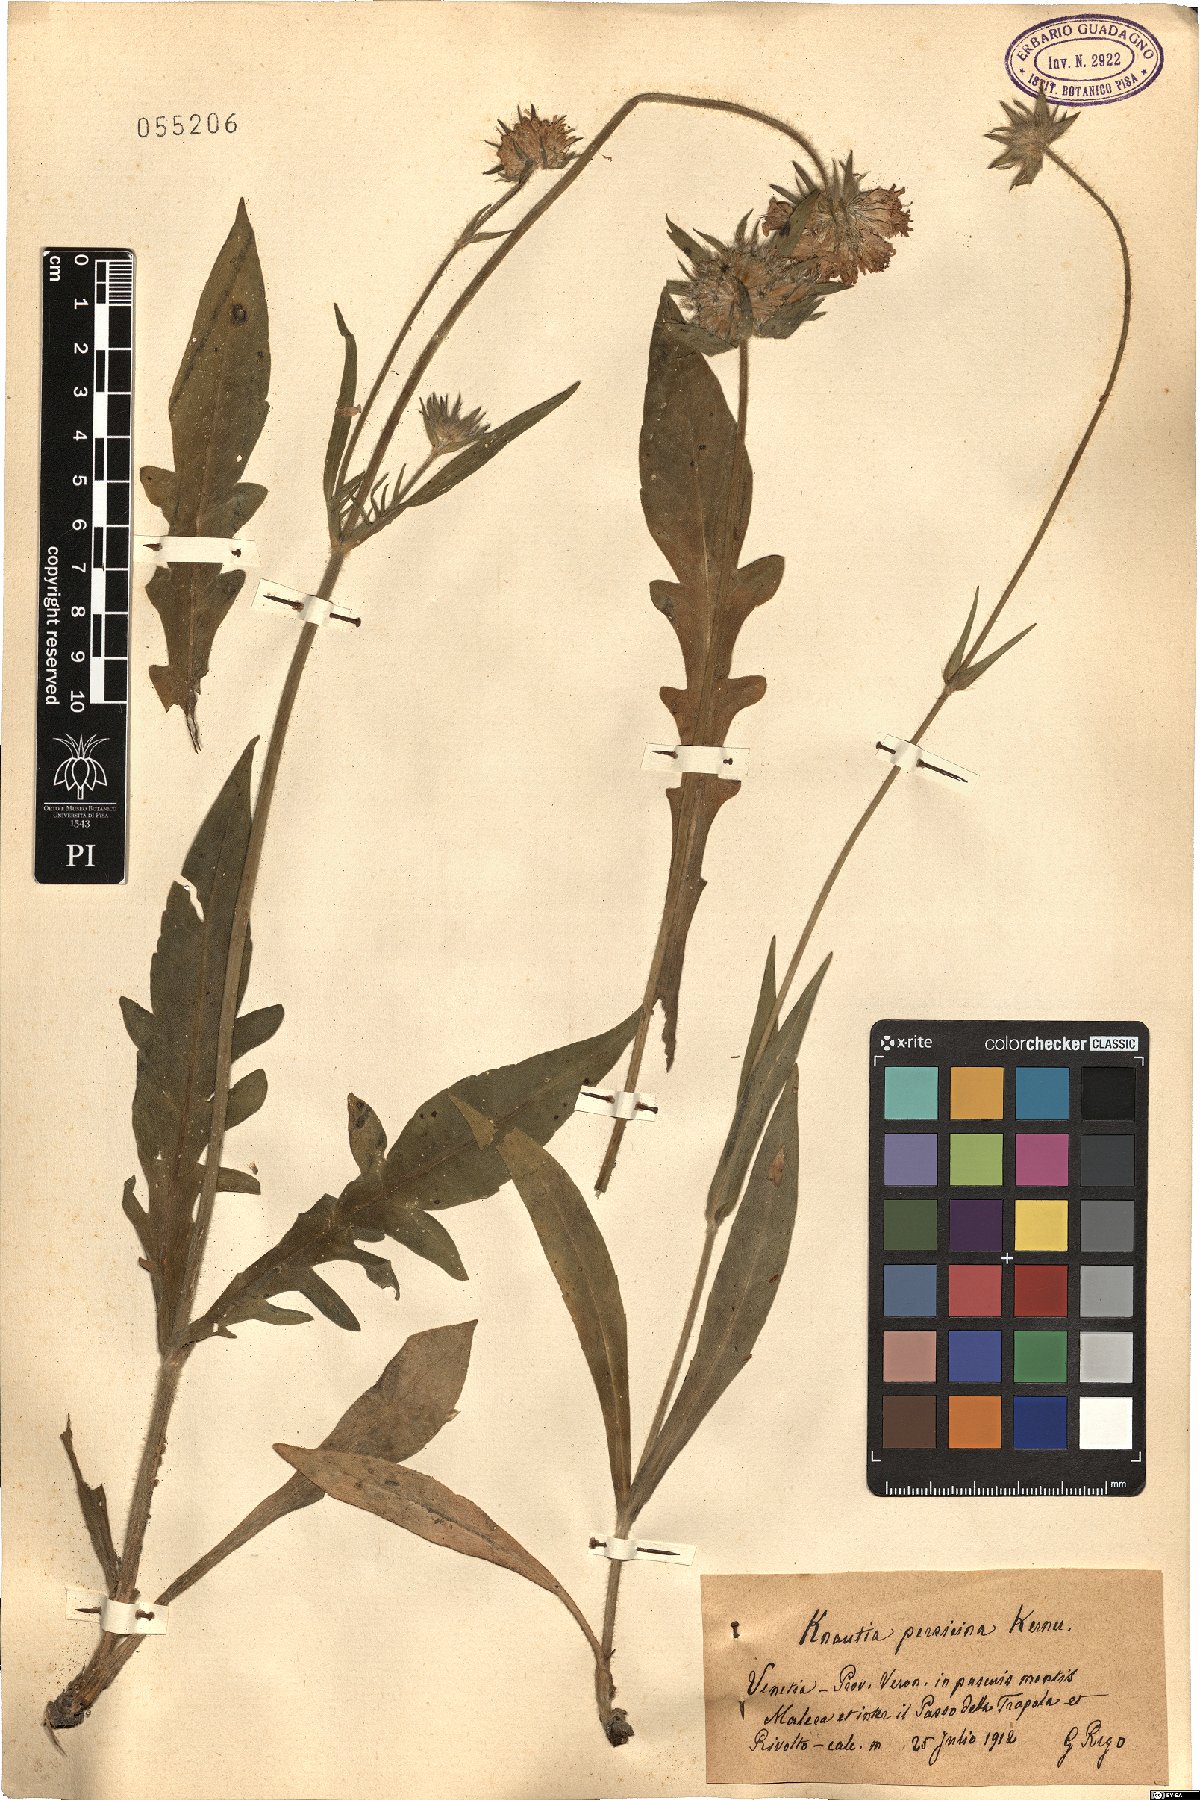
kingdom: Plantae
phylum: Tracheophyta
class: Magnoliopsida
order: Dipsacales
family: Caprifoliaceae
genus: Knautia
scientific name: Knautia persicina
